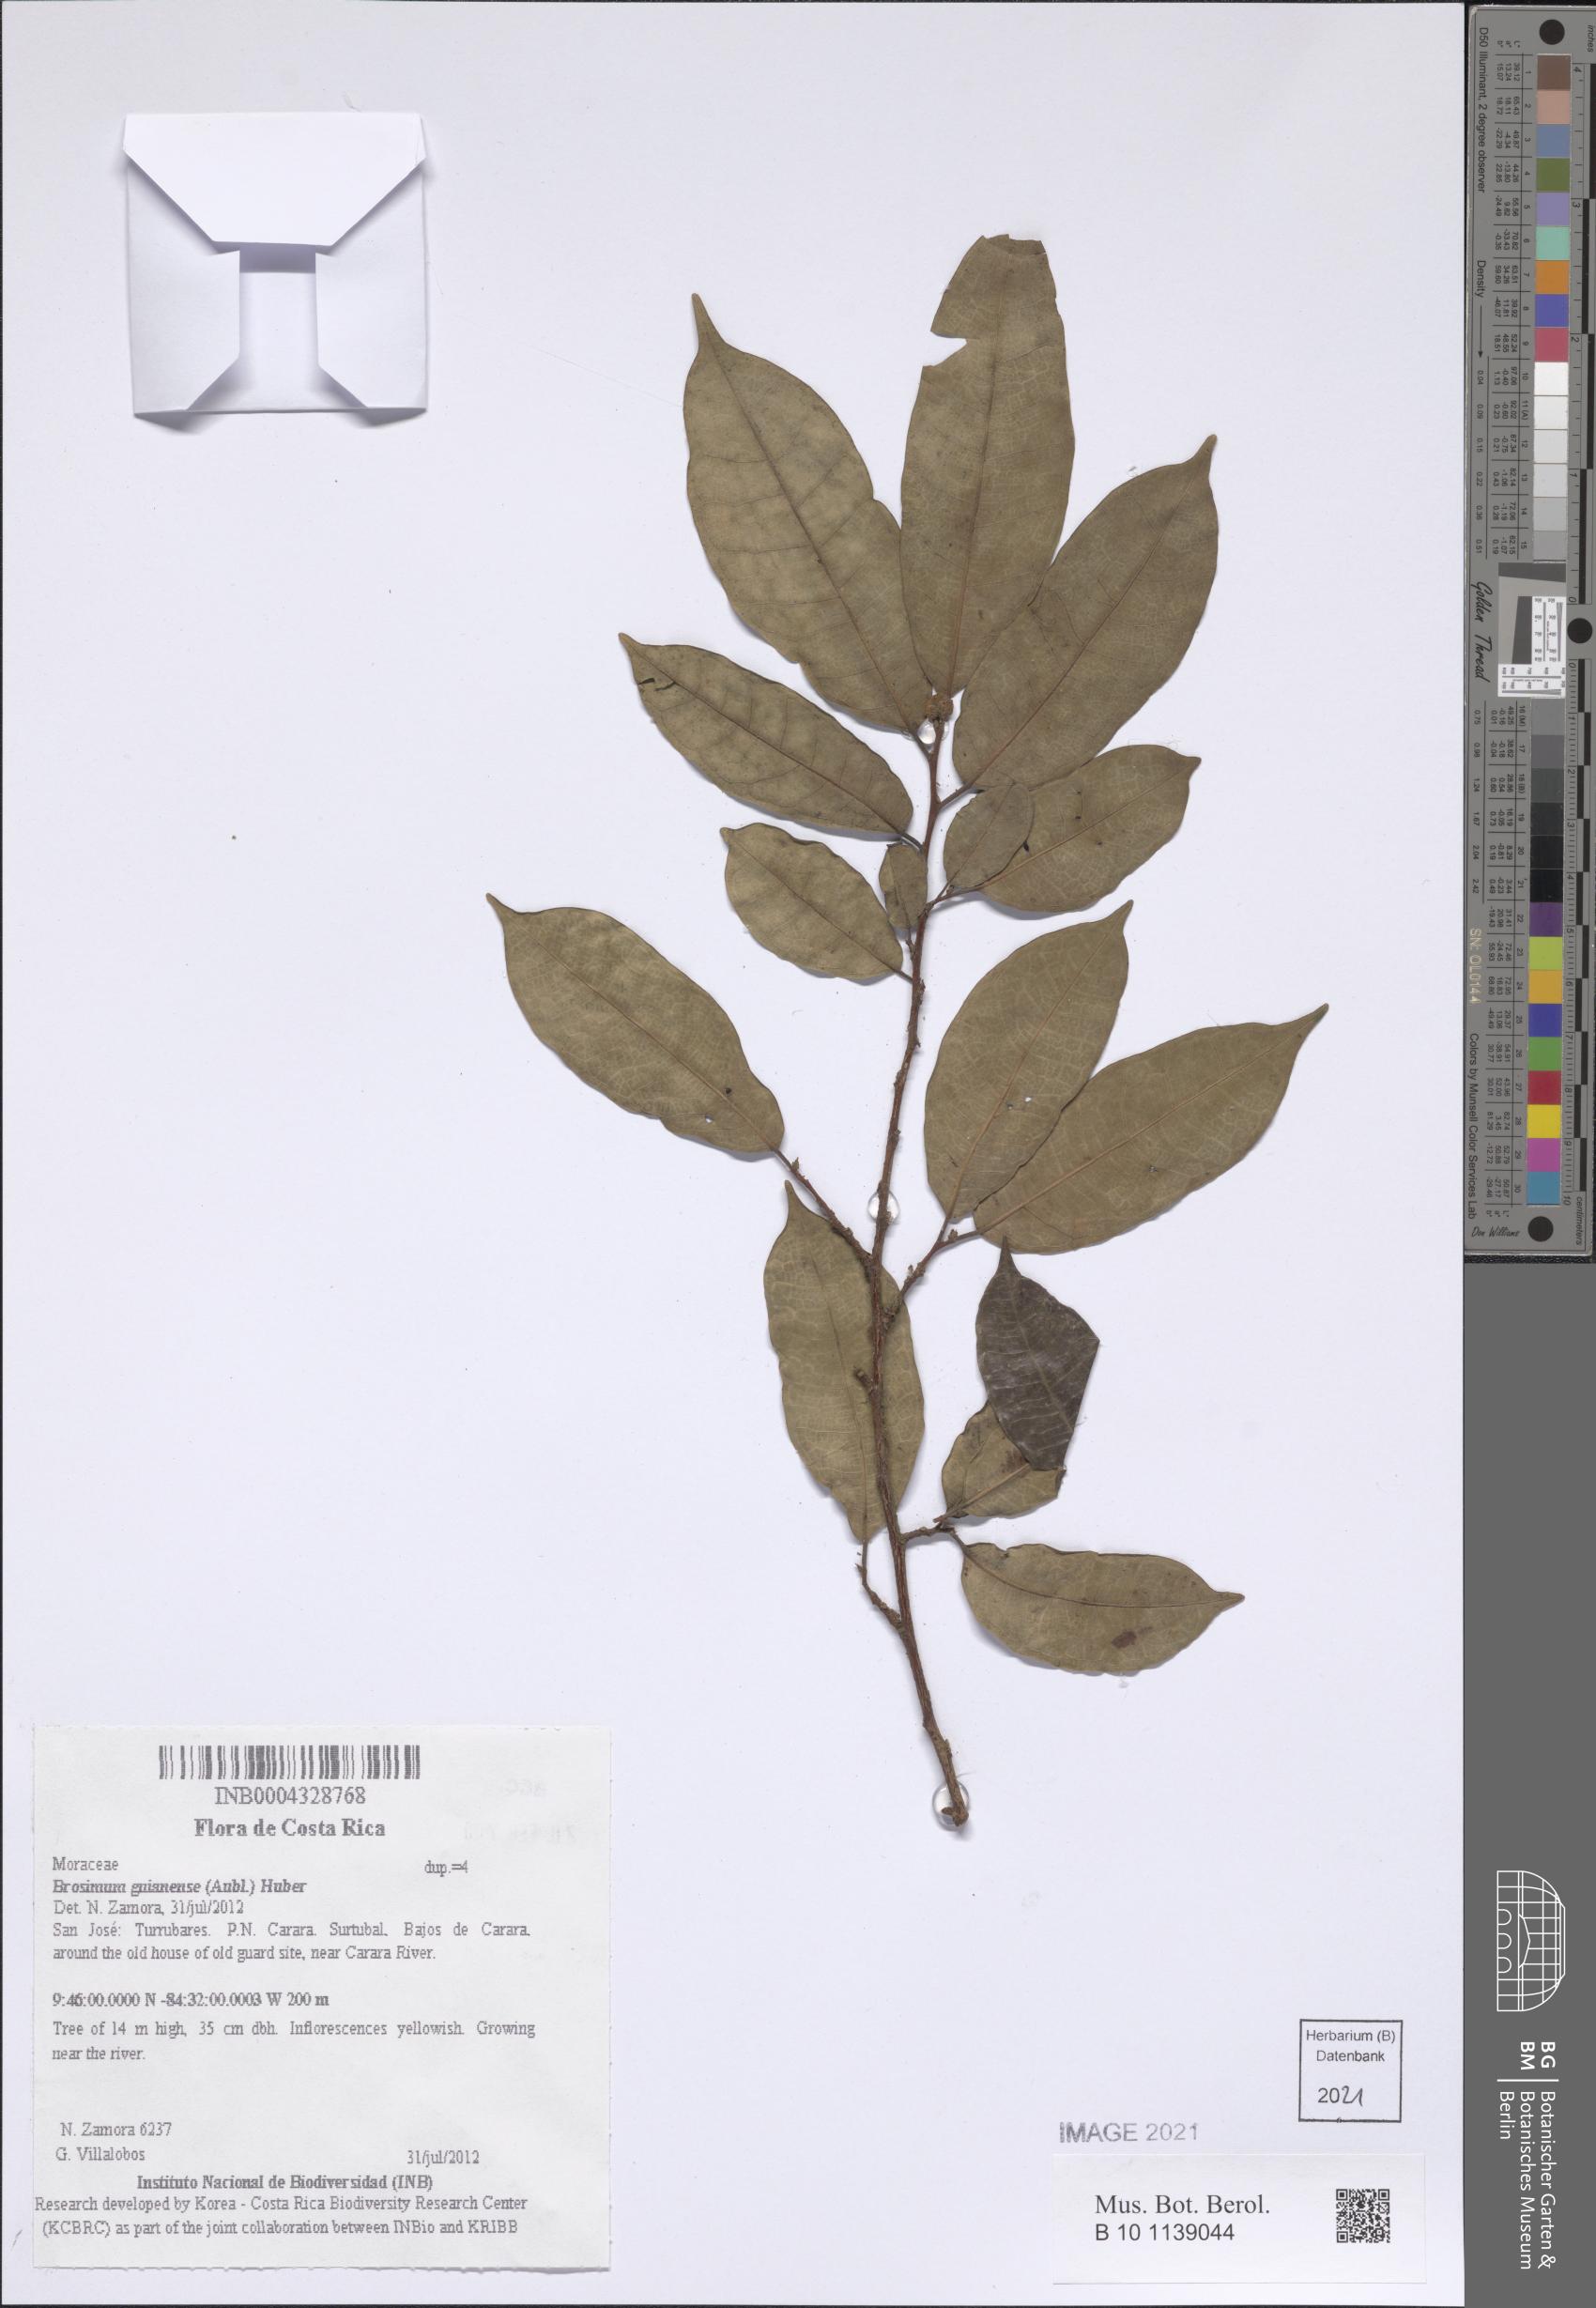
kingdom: Plantae
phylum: Tracheophyta
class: Magnoliopsida
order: Rosales
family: Moraceae
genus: Brosimum
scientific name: Brosimum guianense
